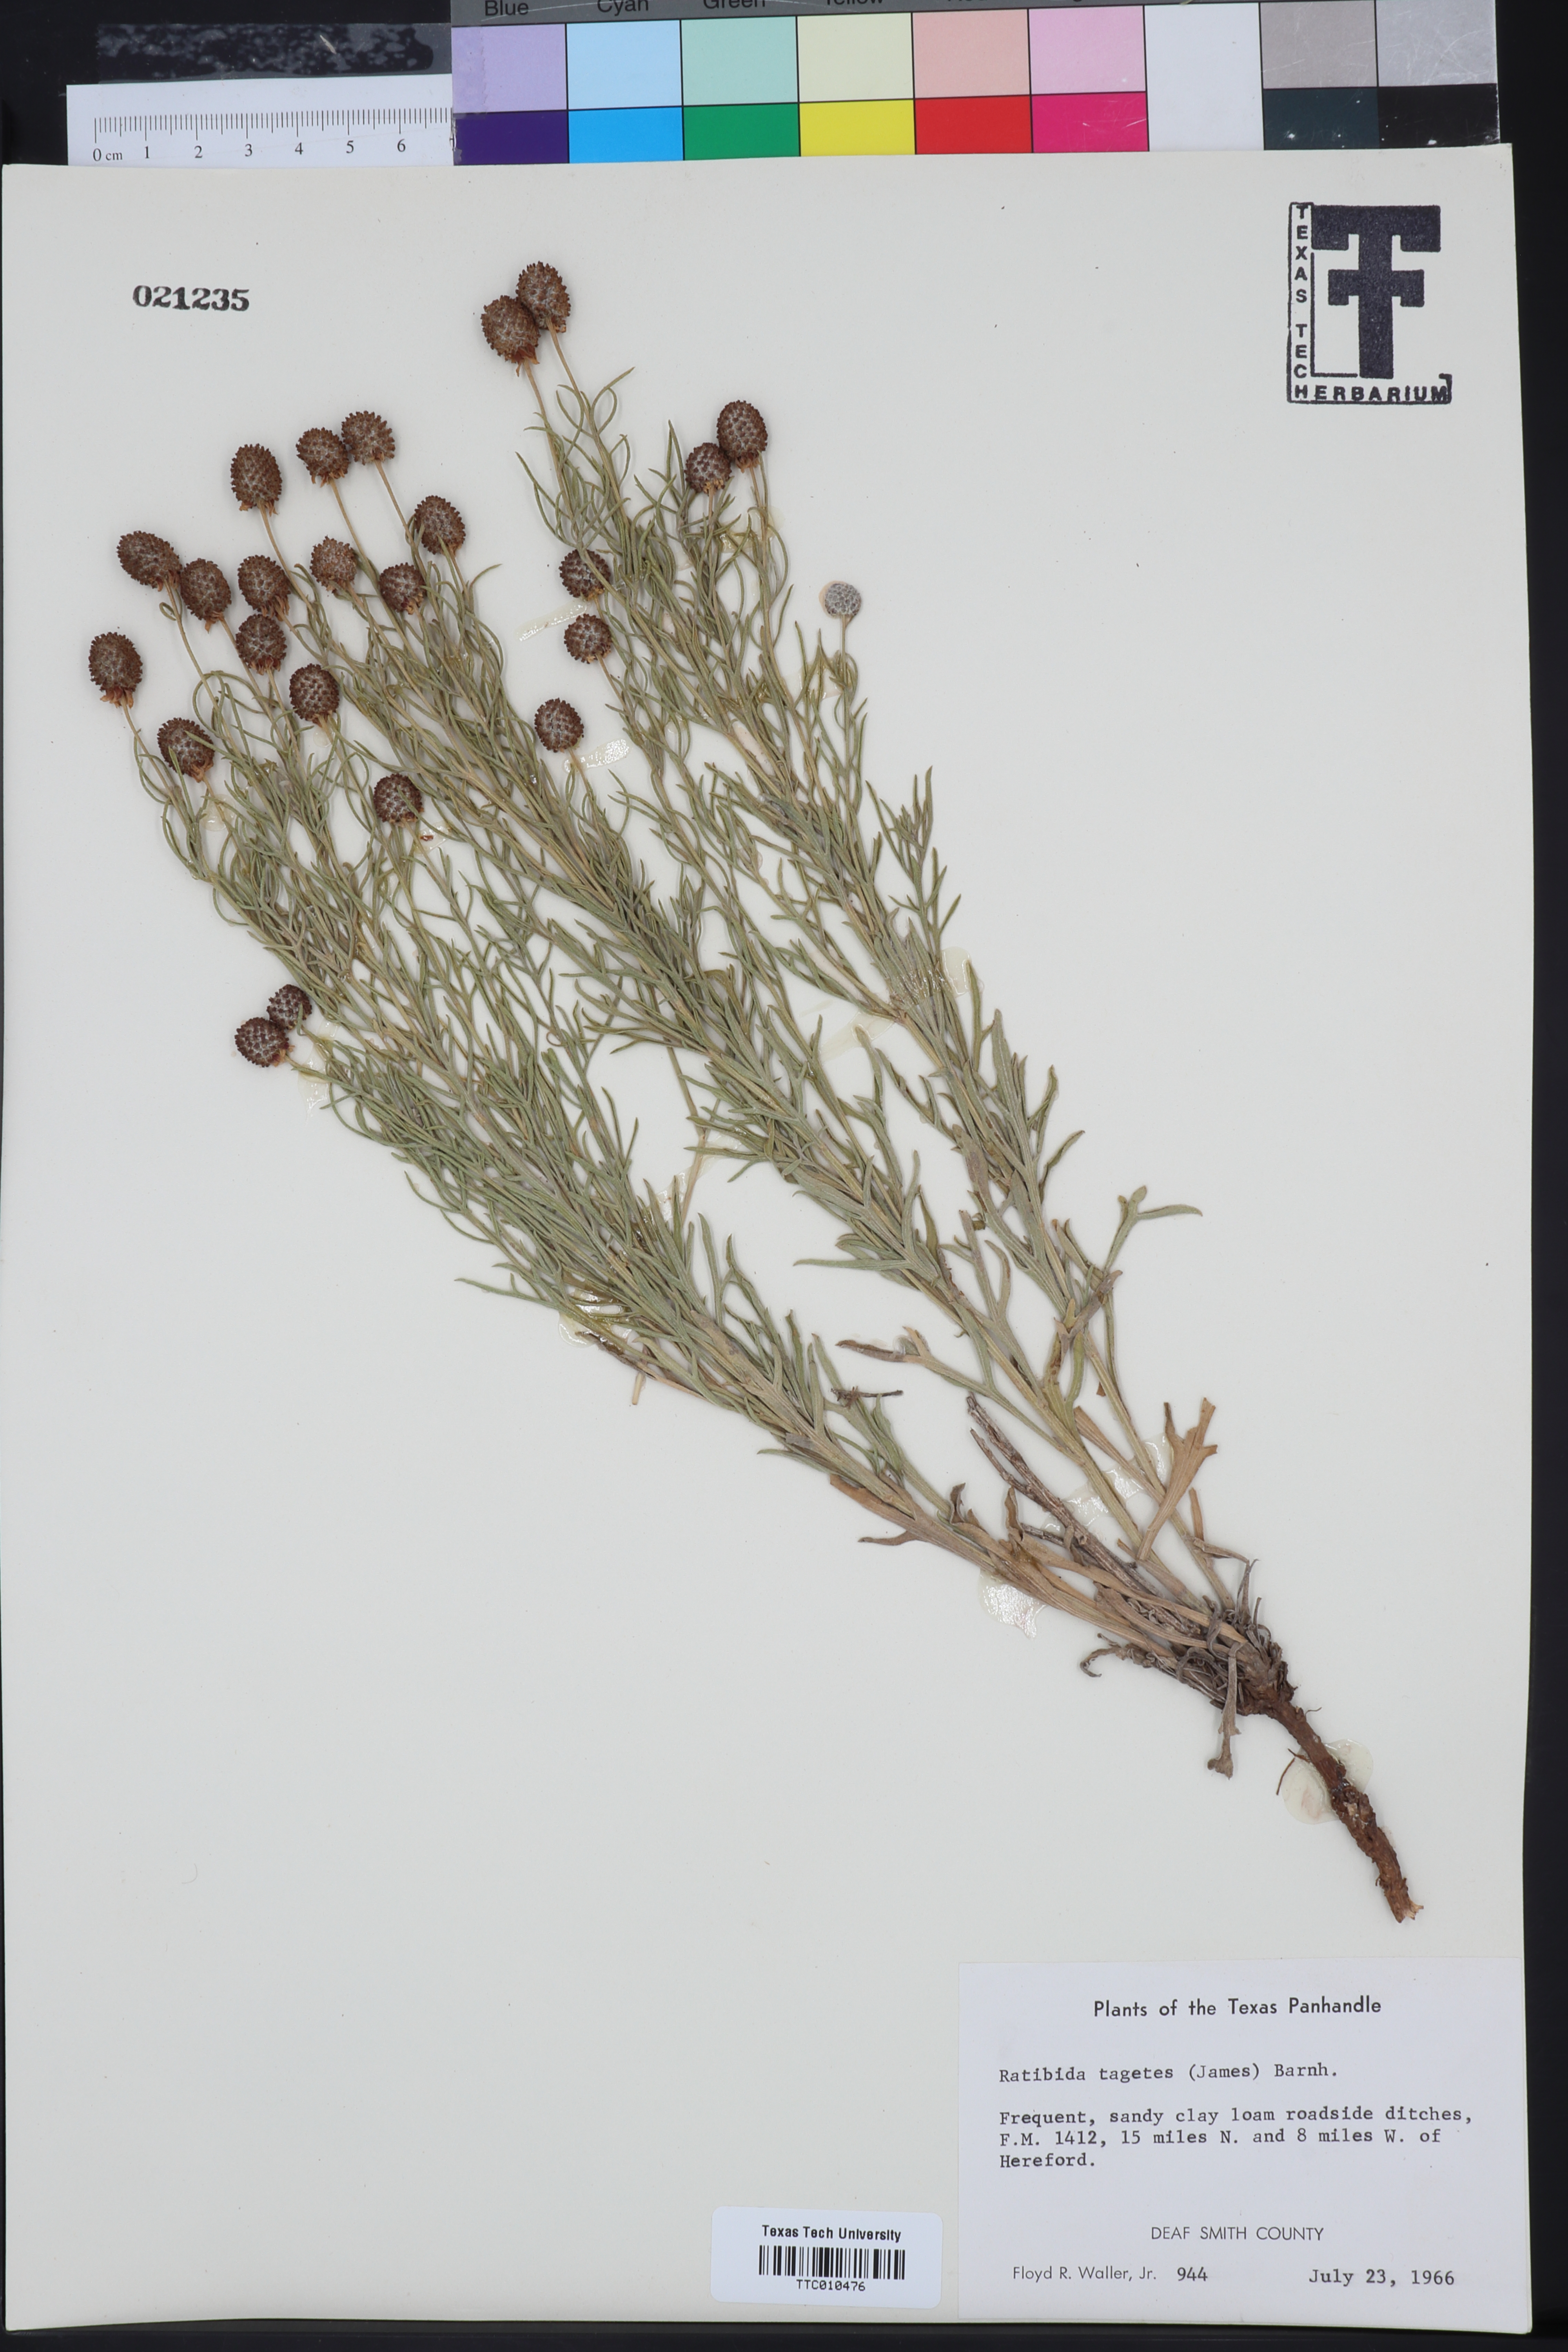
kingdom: Plantae
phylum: Tracheophyta
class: Magnoliopsida
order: Asterales
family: Asteraceae
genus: Ratibida
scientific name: Ratibida tagetes
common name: Green mexican-hat
